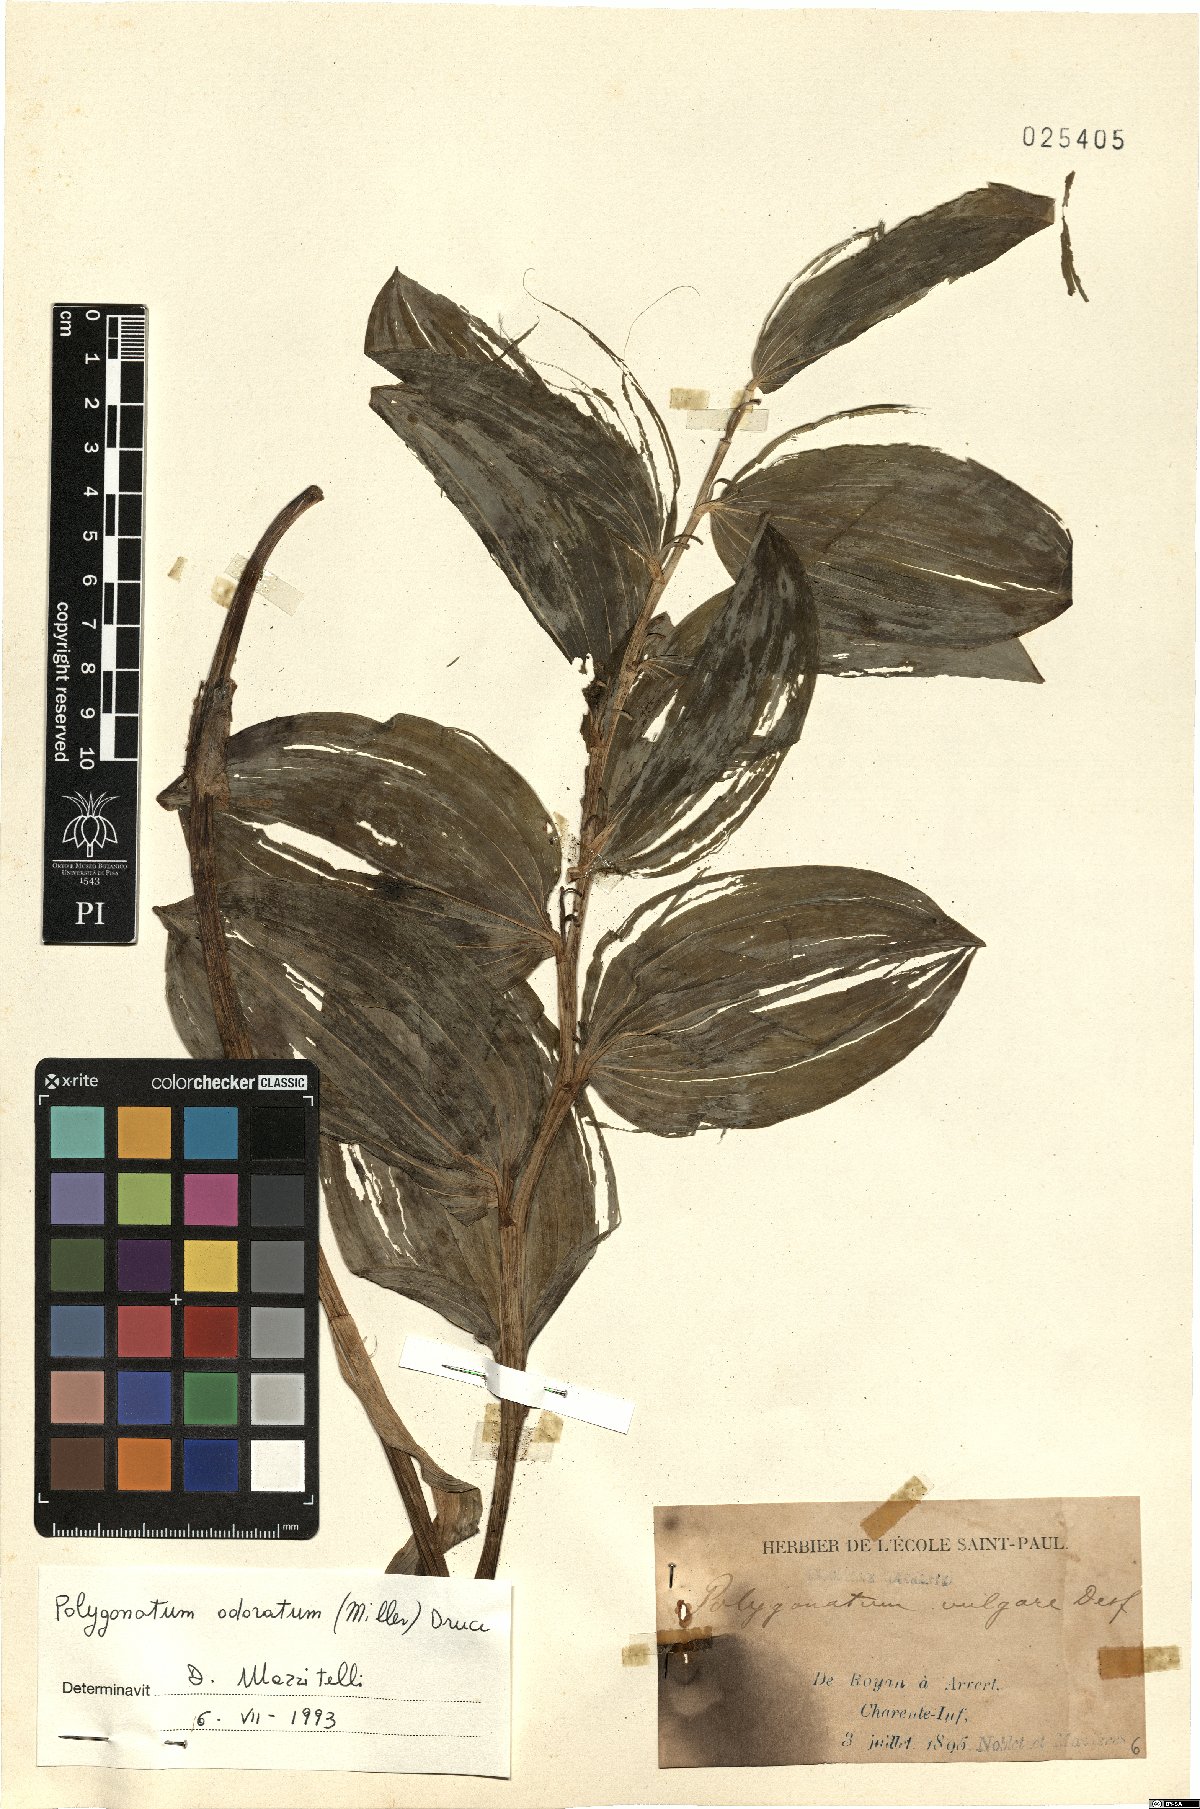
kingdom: Plantae
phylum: Tracheophyta
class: Liliopsida
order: Asparagales
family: Asparagaceae
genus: Polygonatum
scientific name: Polygonatum odoratum
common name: Angular solomon's-seal
